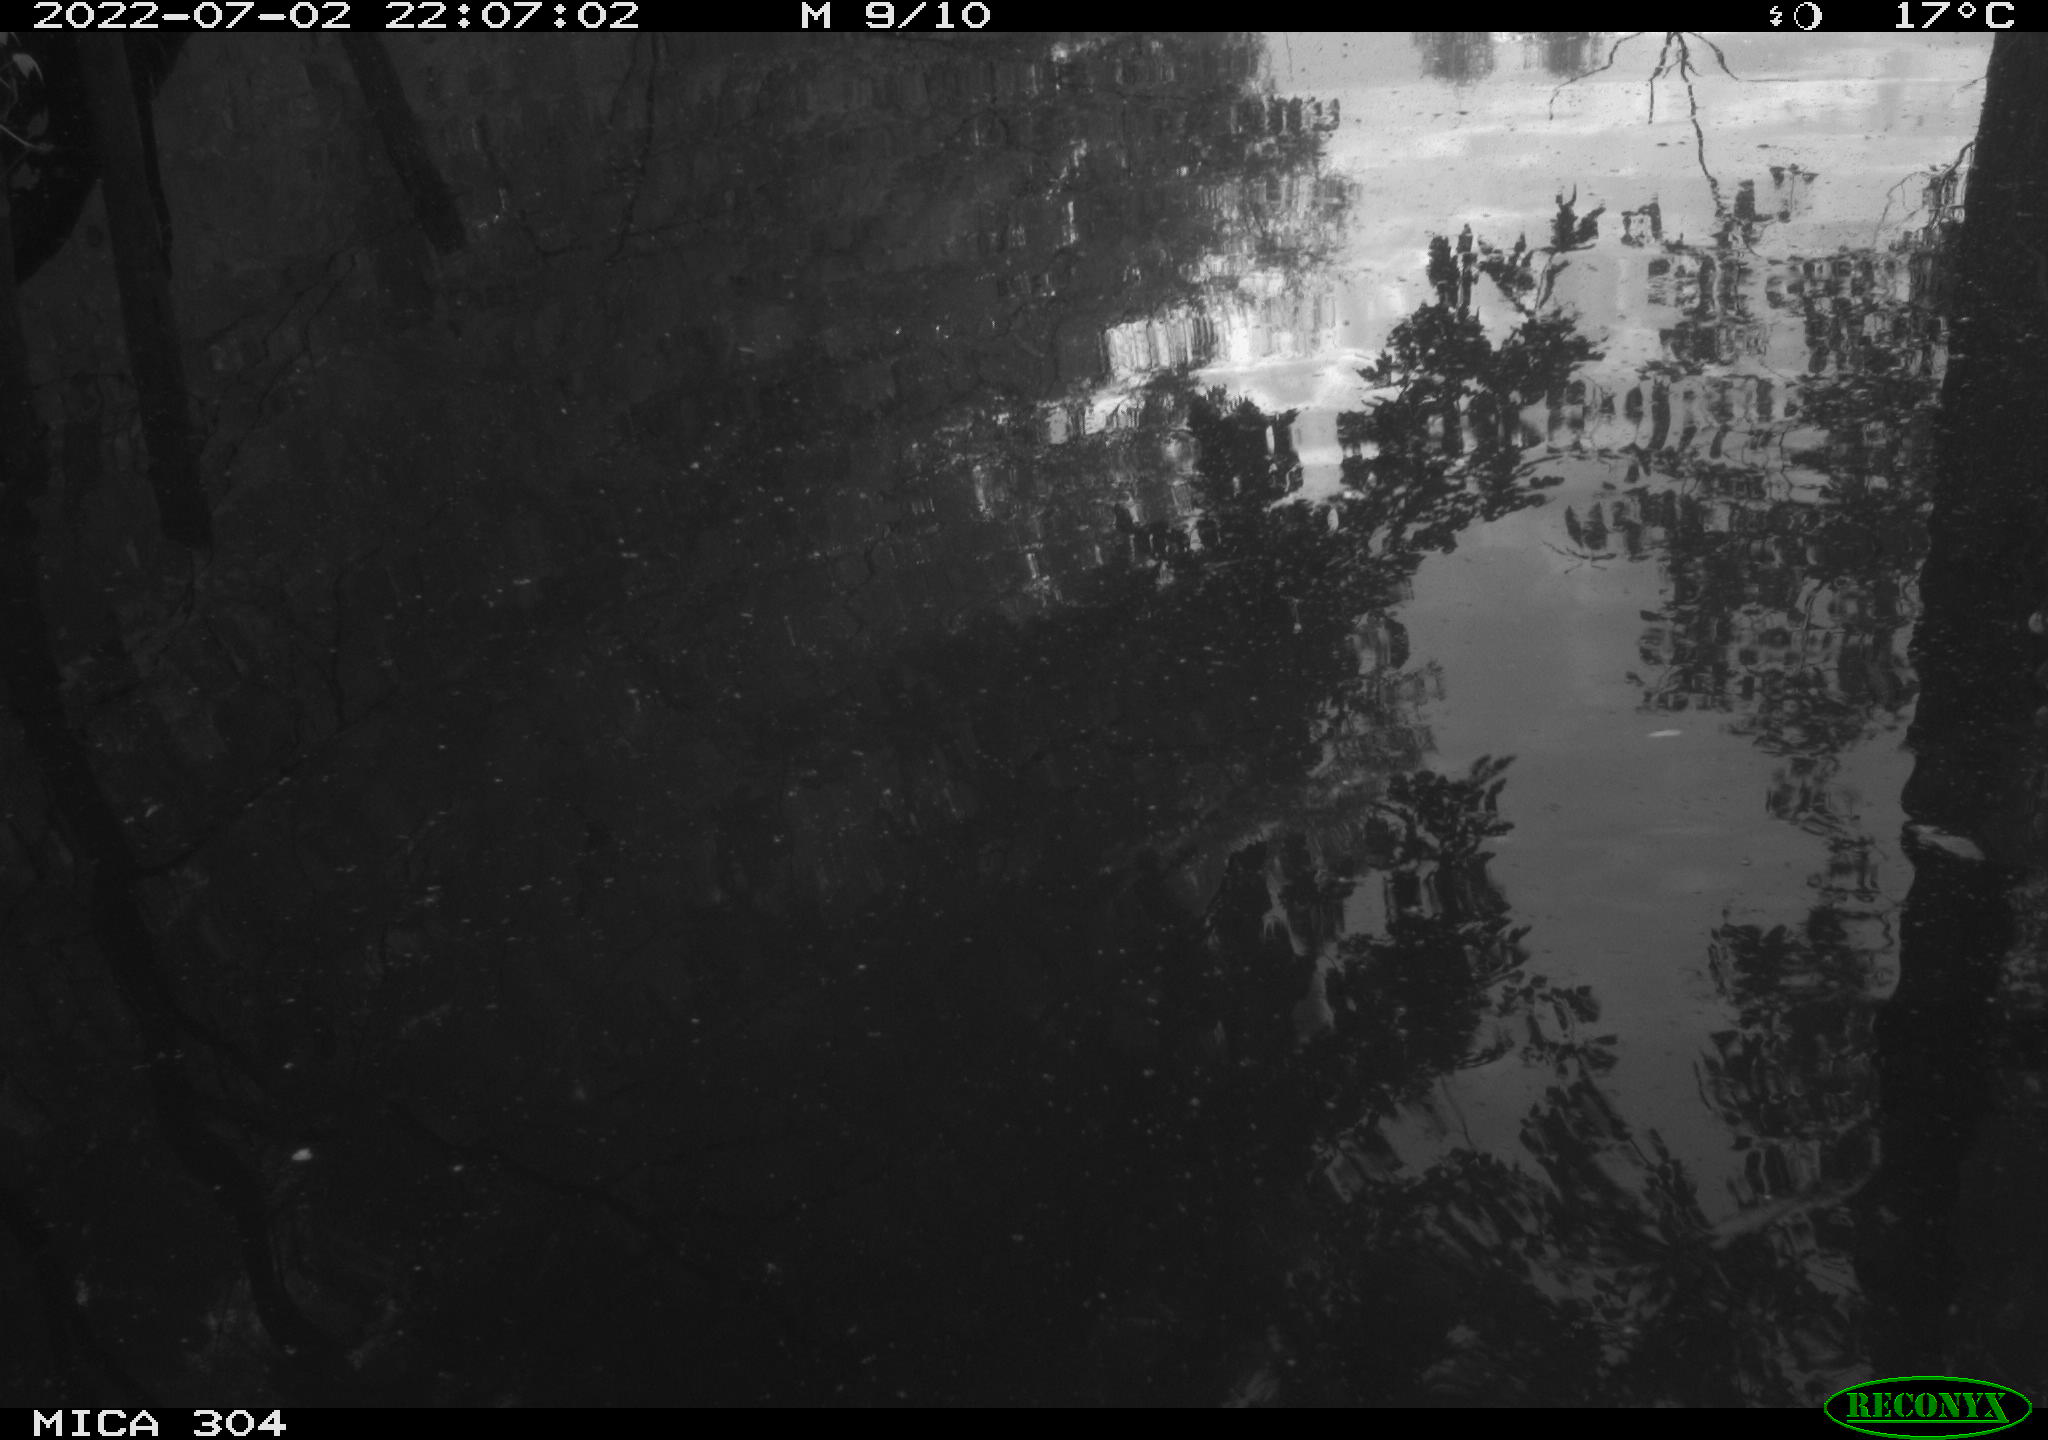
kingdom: Animalia
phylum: Chordata
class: Aves
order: Anseriformes
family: Anatidae
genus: Anas
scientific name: Anas platyrhynchos
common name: Mallard
